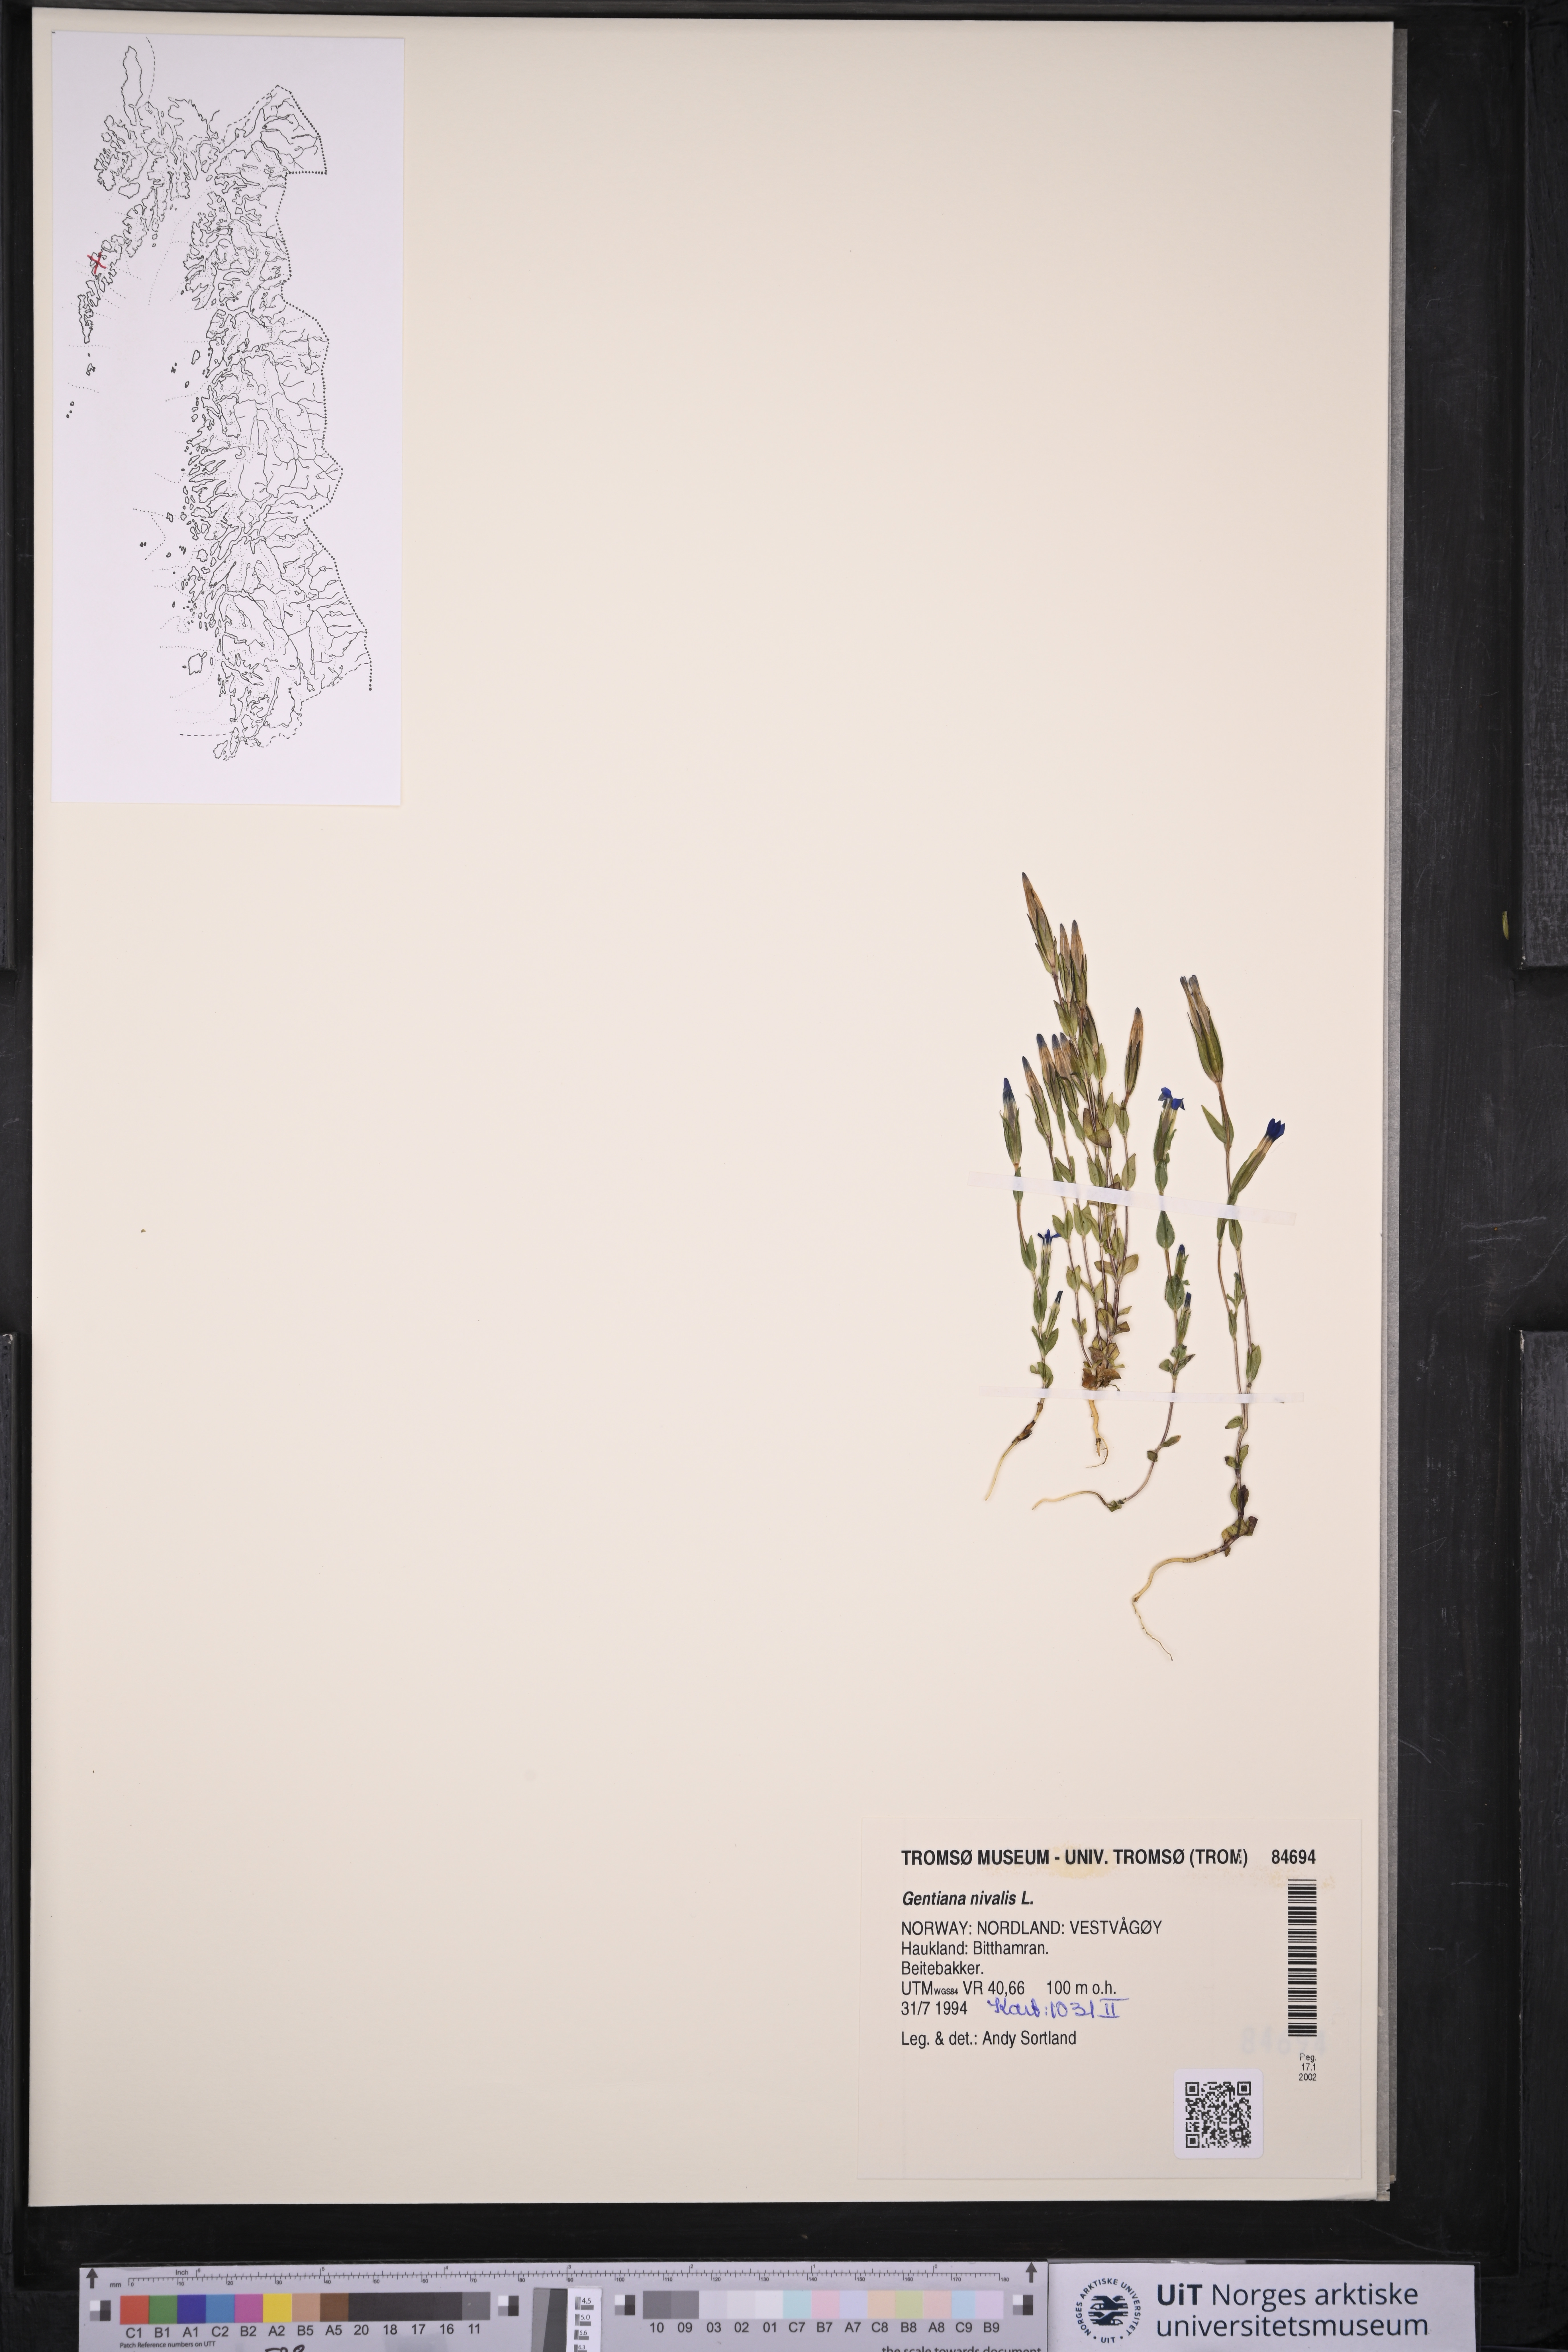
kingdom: Plantae
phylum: Tracheophyta
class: Magnoliopsida
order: Gentianales
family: Gentianaceae
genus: Gentiana
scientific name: Gentiana nivalis
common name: Alpine gentian
